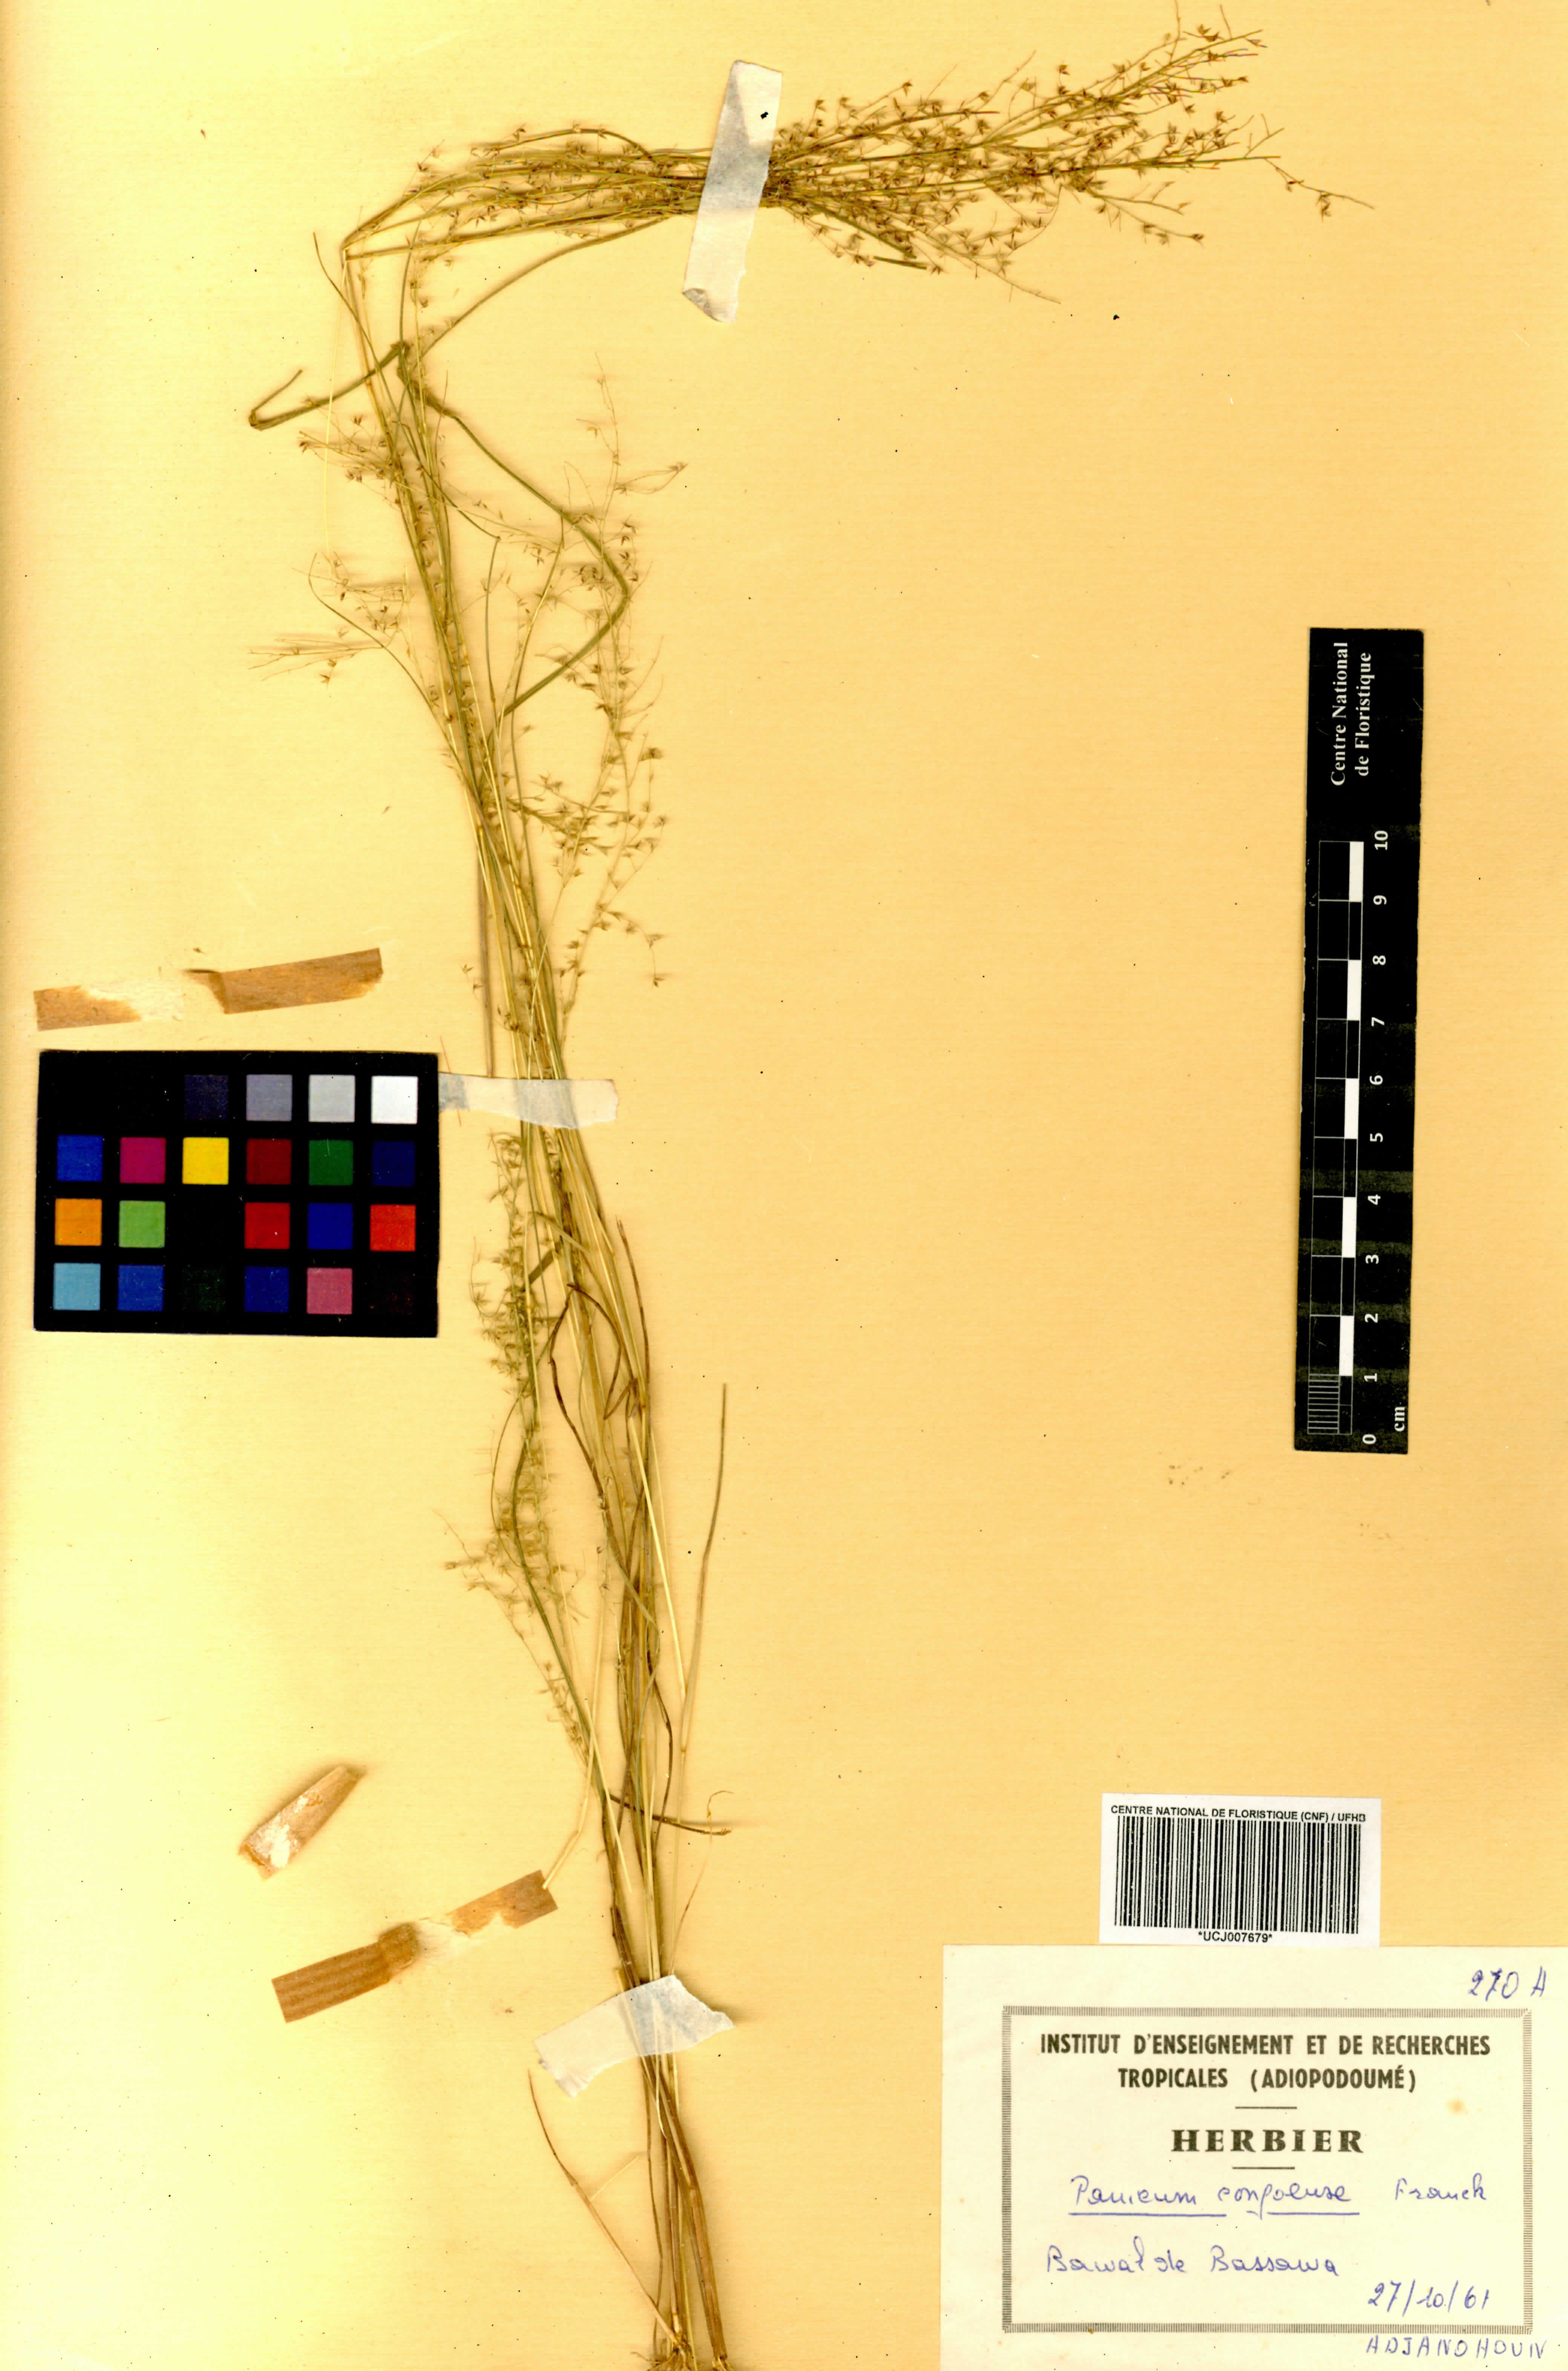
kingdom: Plantae
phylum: Tracheophyta
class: Liliopsida
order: Poales
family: Poaceae
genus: Panicum
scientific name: Panicum congoense
